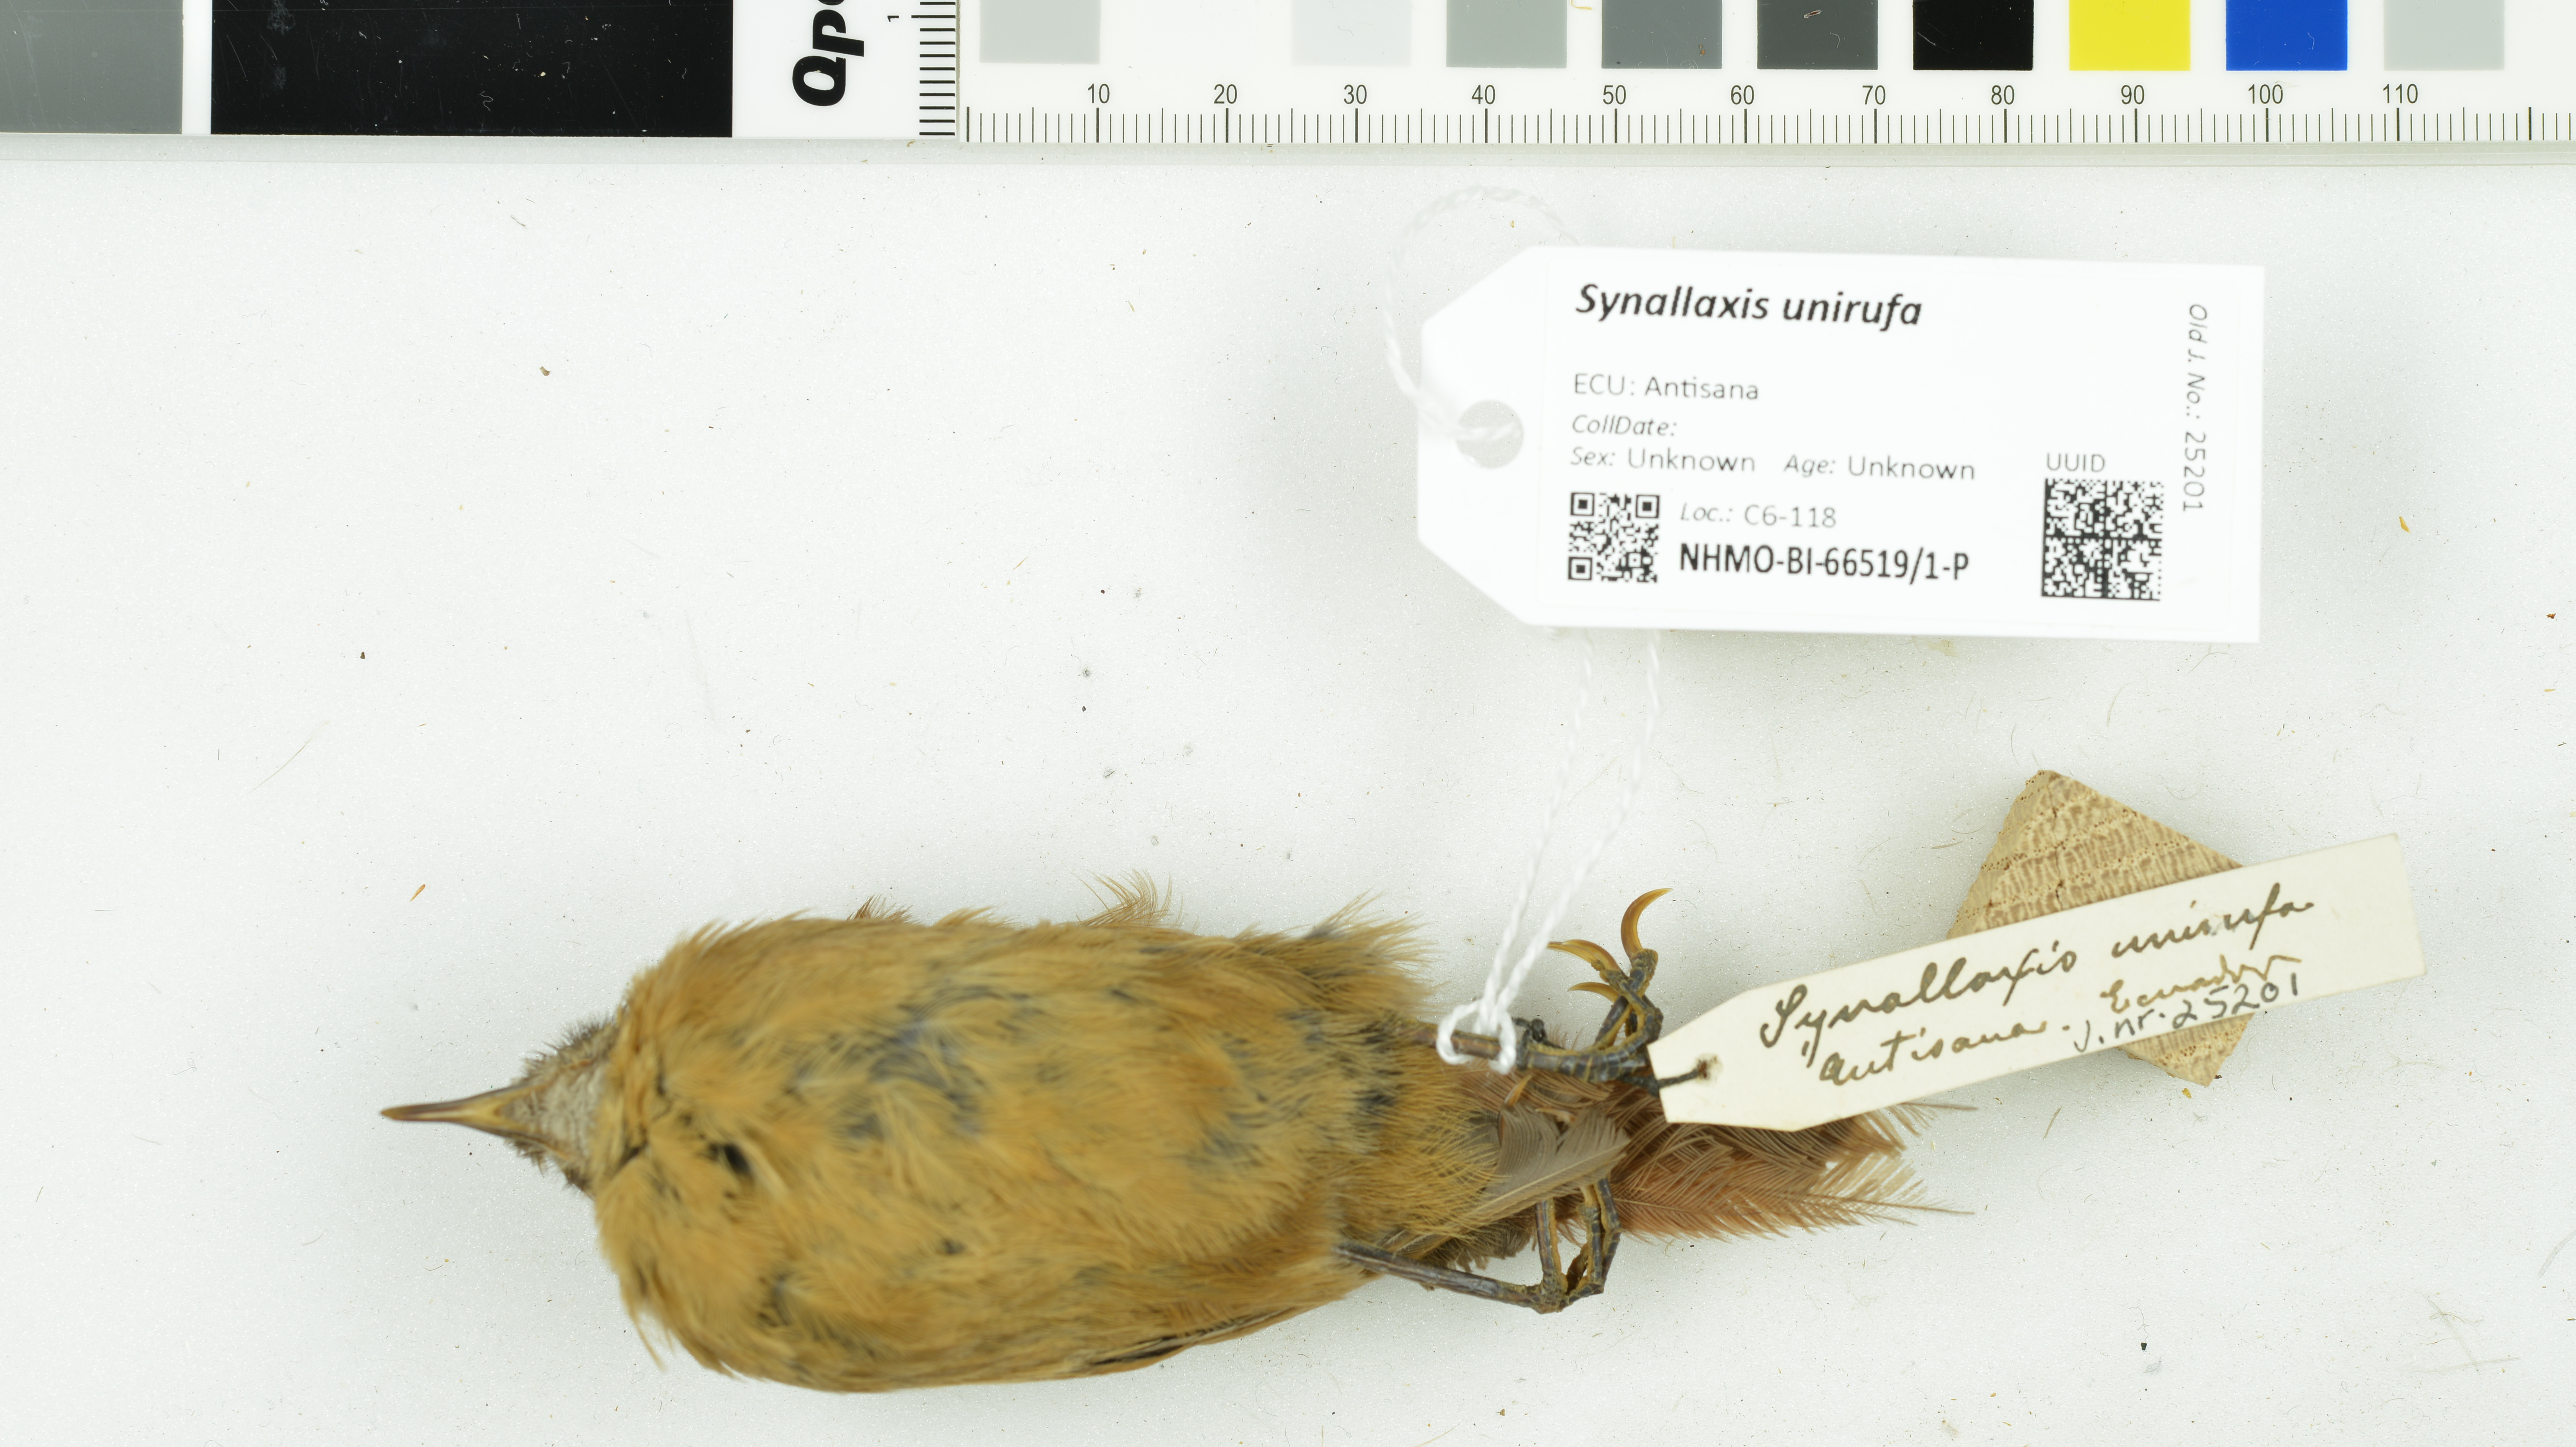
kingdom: Animalia
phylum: Chordata
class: Aves
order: Passeriformes
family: Furnariidae
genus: Synallaxis
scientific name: Synallaxis unirufa
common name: Rufous spinetail
